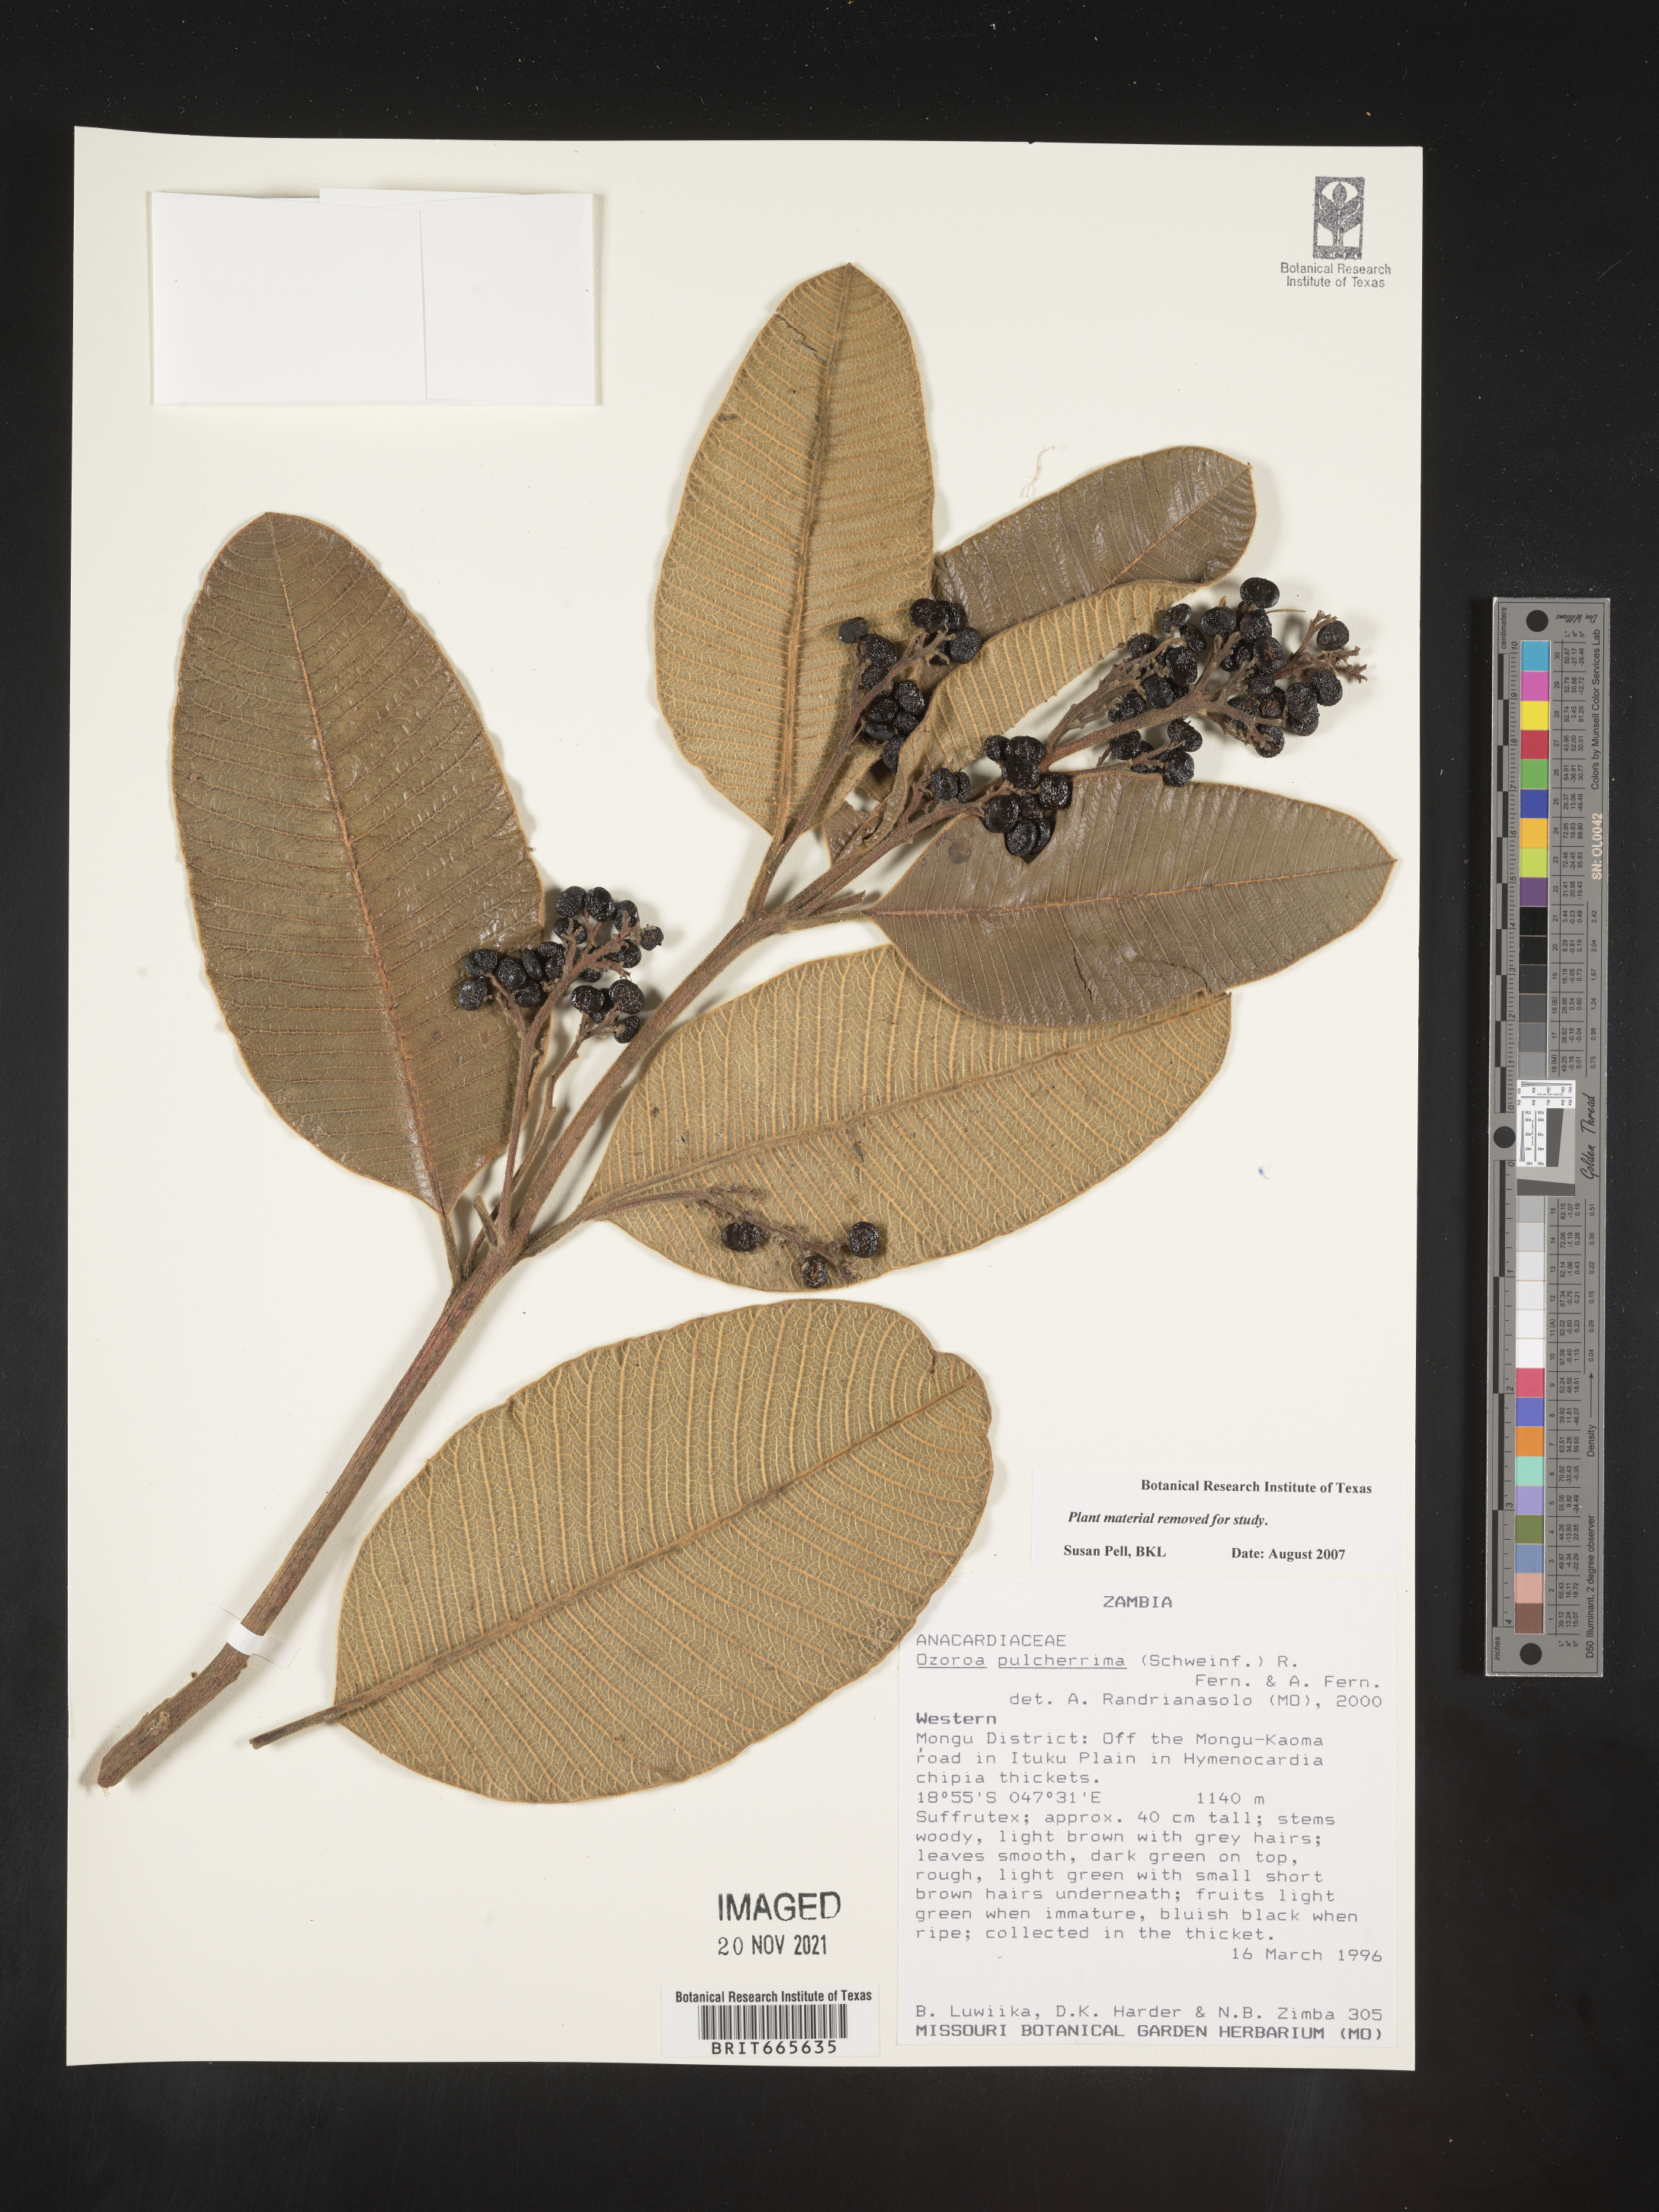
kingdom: Plantae
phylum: Tracheophyta
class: Magnoliopsida
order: Sapindales
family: Anacardiaceae
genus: Ozoroa
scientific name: Ozoroa
